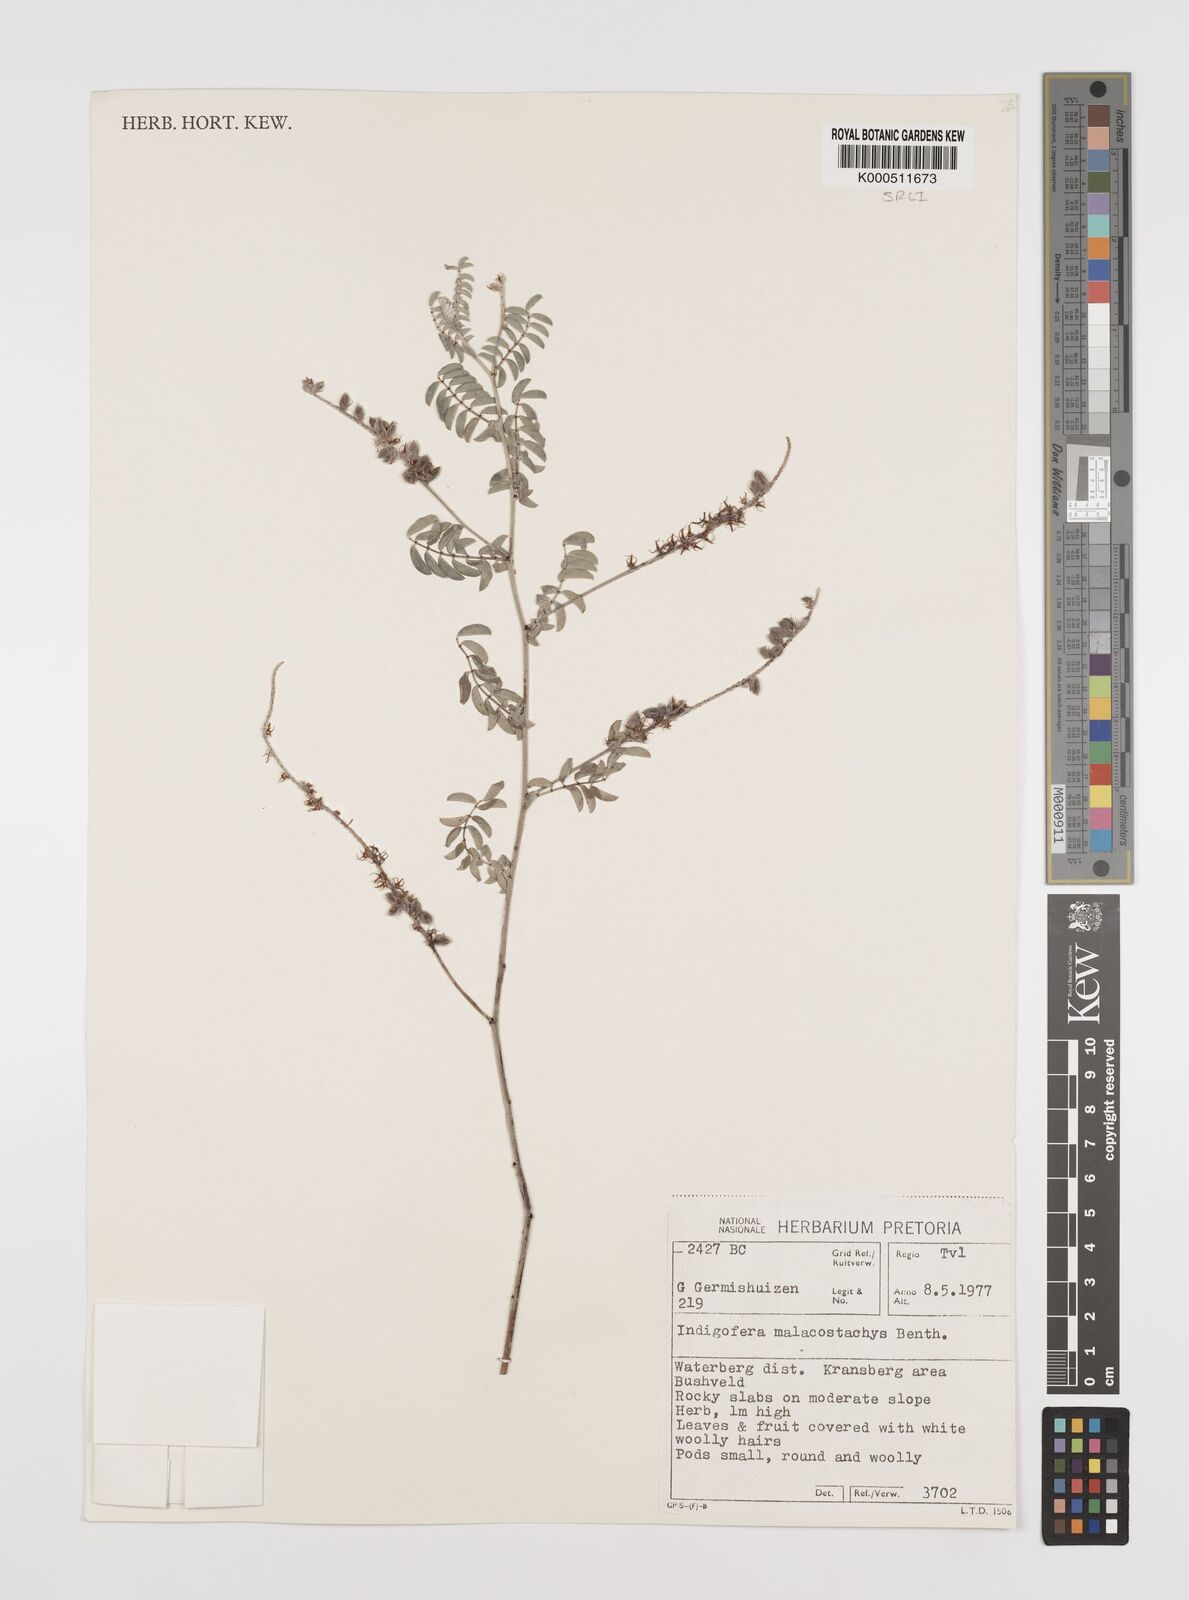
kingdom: Plantae
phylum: Tracheophyta
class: Magnoliopsida
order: Fabales
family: Fabaceae
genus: Indigofera
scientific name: Indigofera melanadenia
